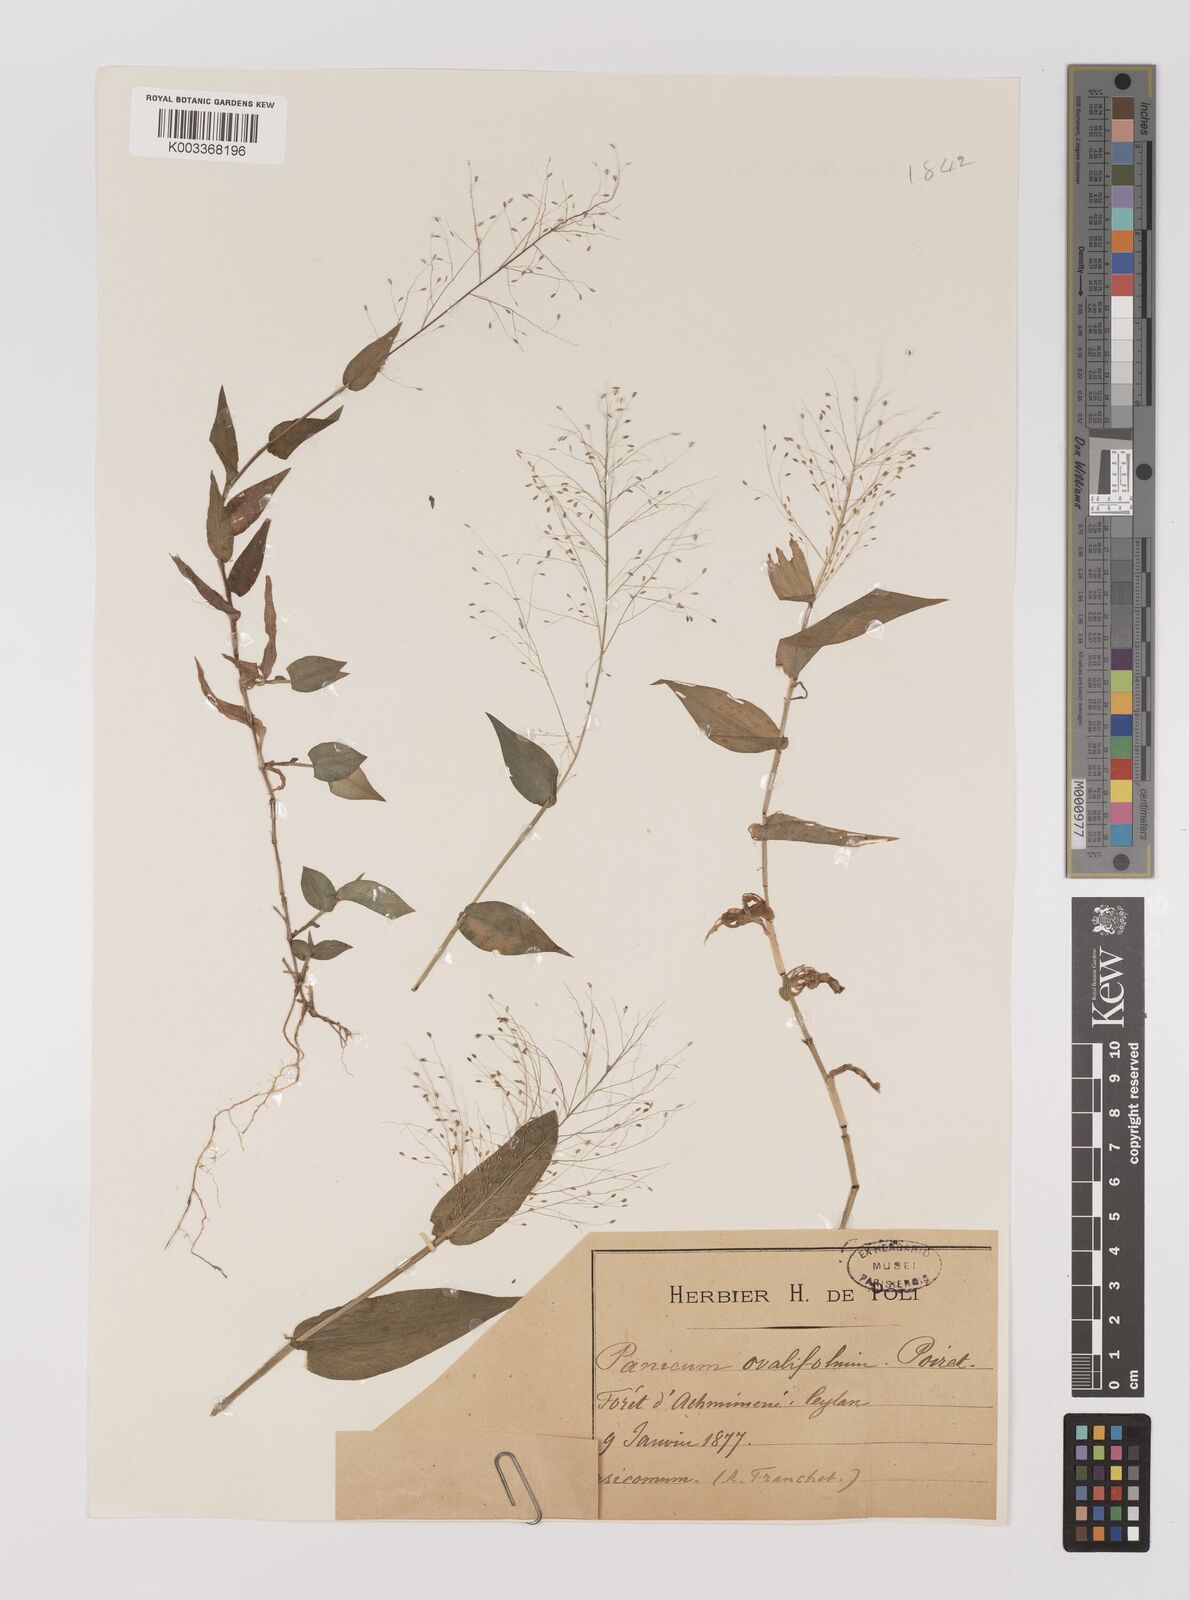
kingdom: Plantae
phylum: Tracheophyta
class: Liliopsida
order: Poales
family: Poaceae
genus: Panicum
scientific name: Panicum brevifolium
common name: Shortleaf panic grass
